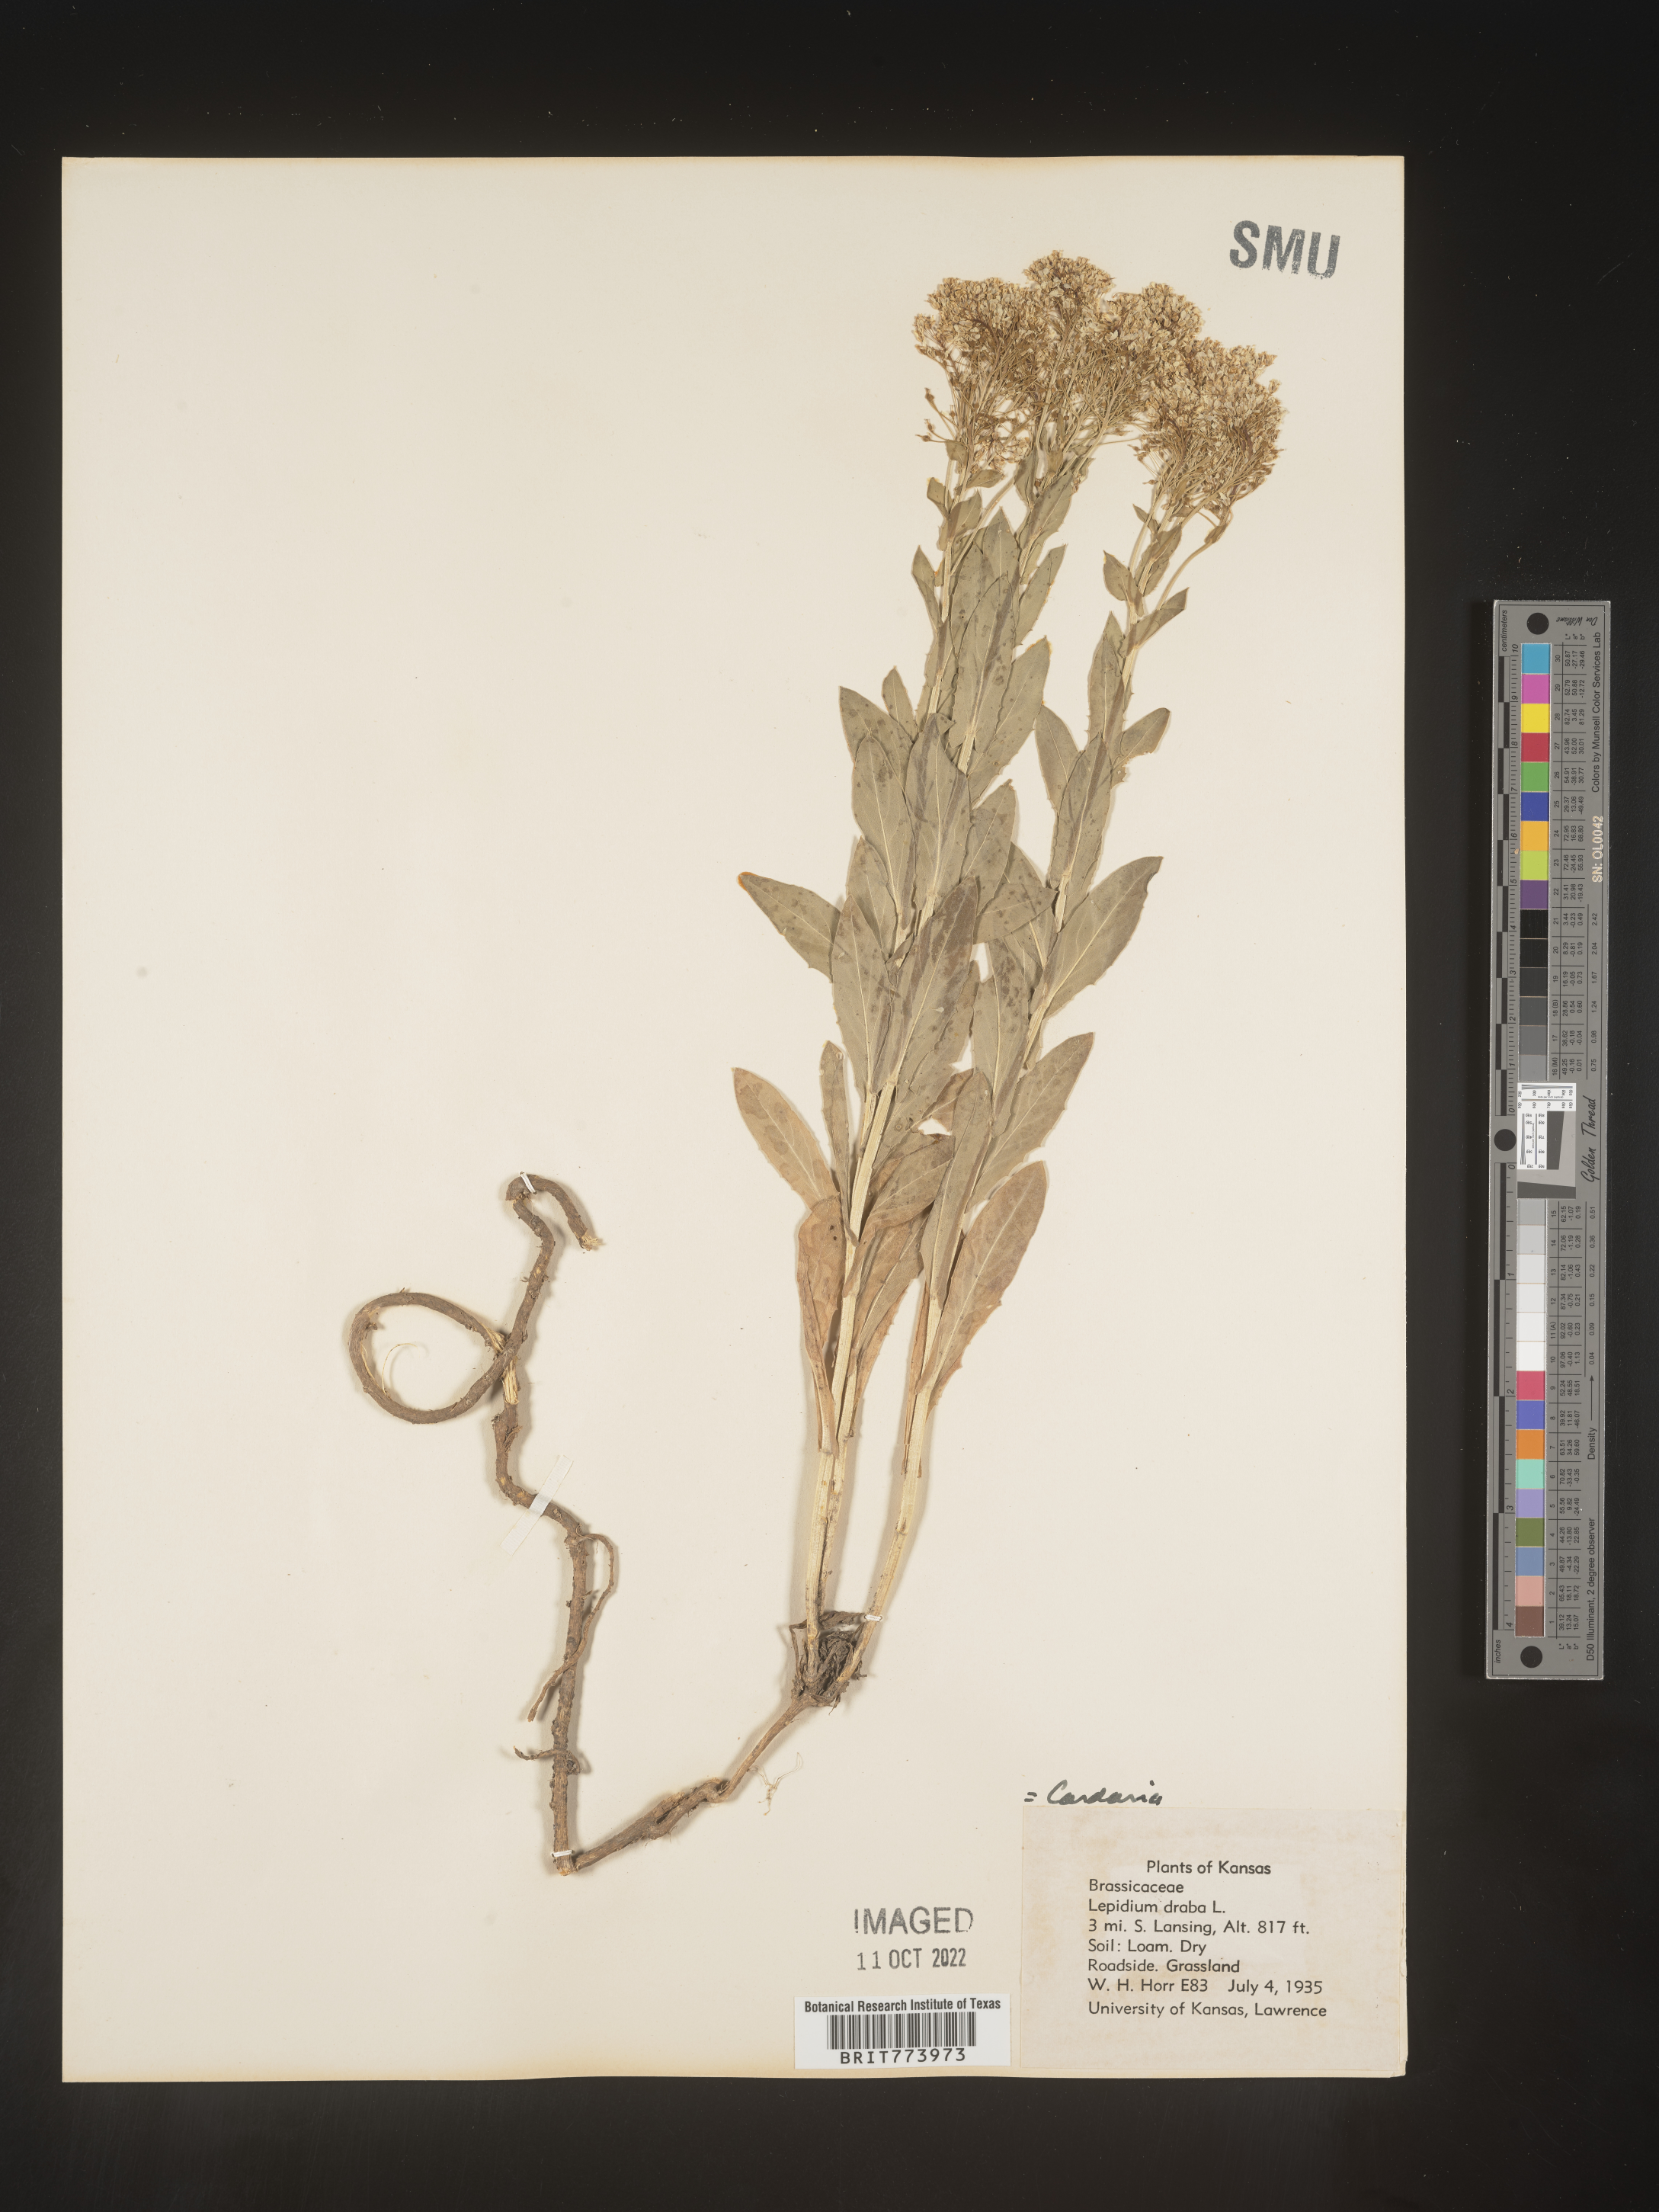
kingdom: Plantae
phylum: Tracheophyta
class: Magnoliopsida
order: Brassicales
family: Brassicaceae
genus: Lepidium
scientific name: Lepidium draba
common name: Hoary cress
